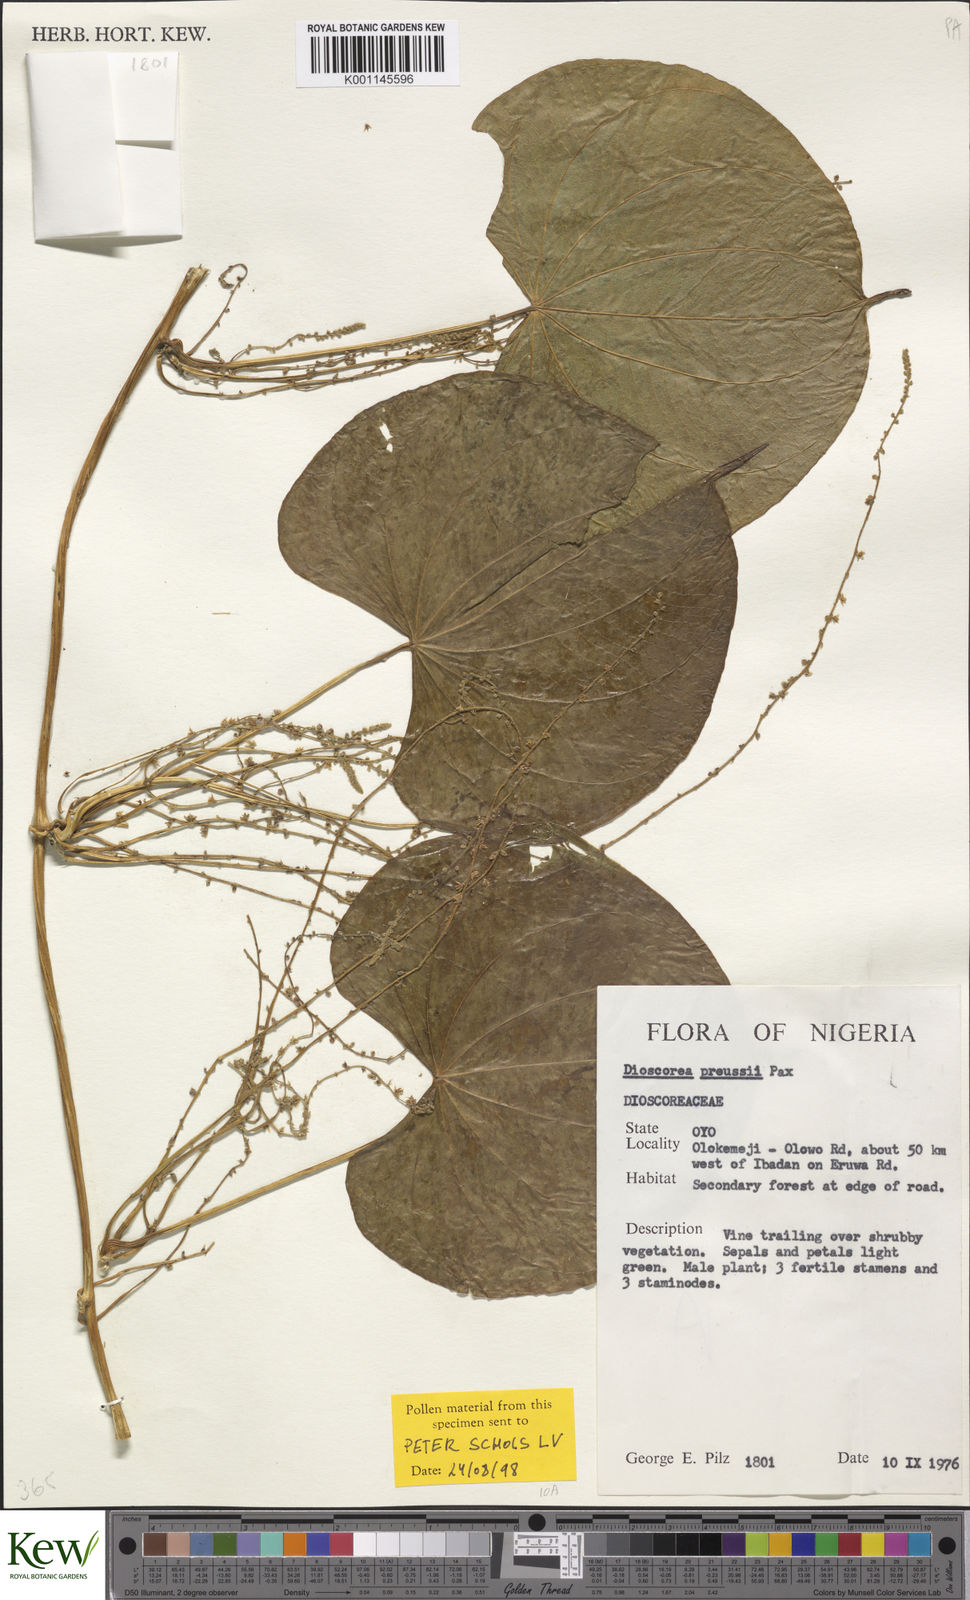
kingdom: Plantae
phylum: Tracheophyta
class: Liliopsida
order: Dioscoreales
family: Dioscoreaceae
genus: Dioscorea
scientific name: Dioscorea preussii
